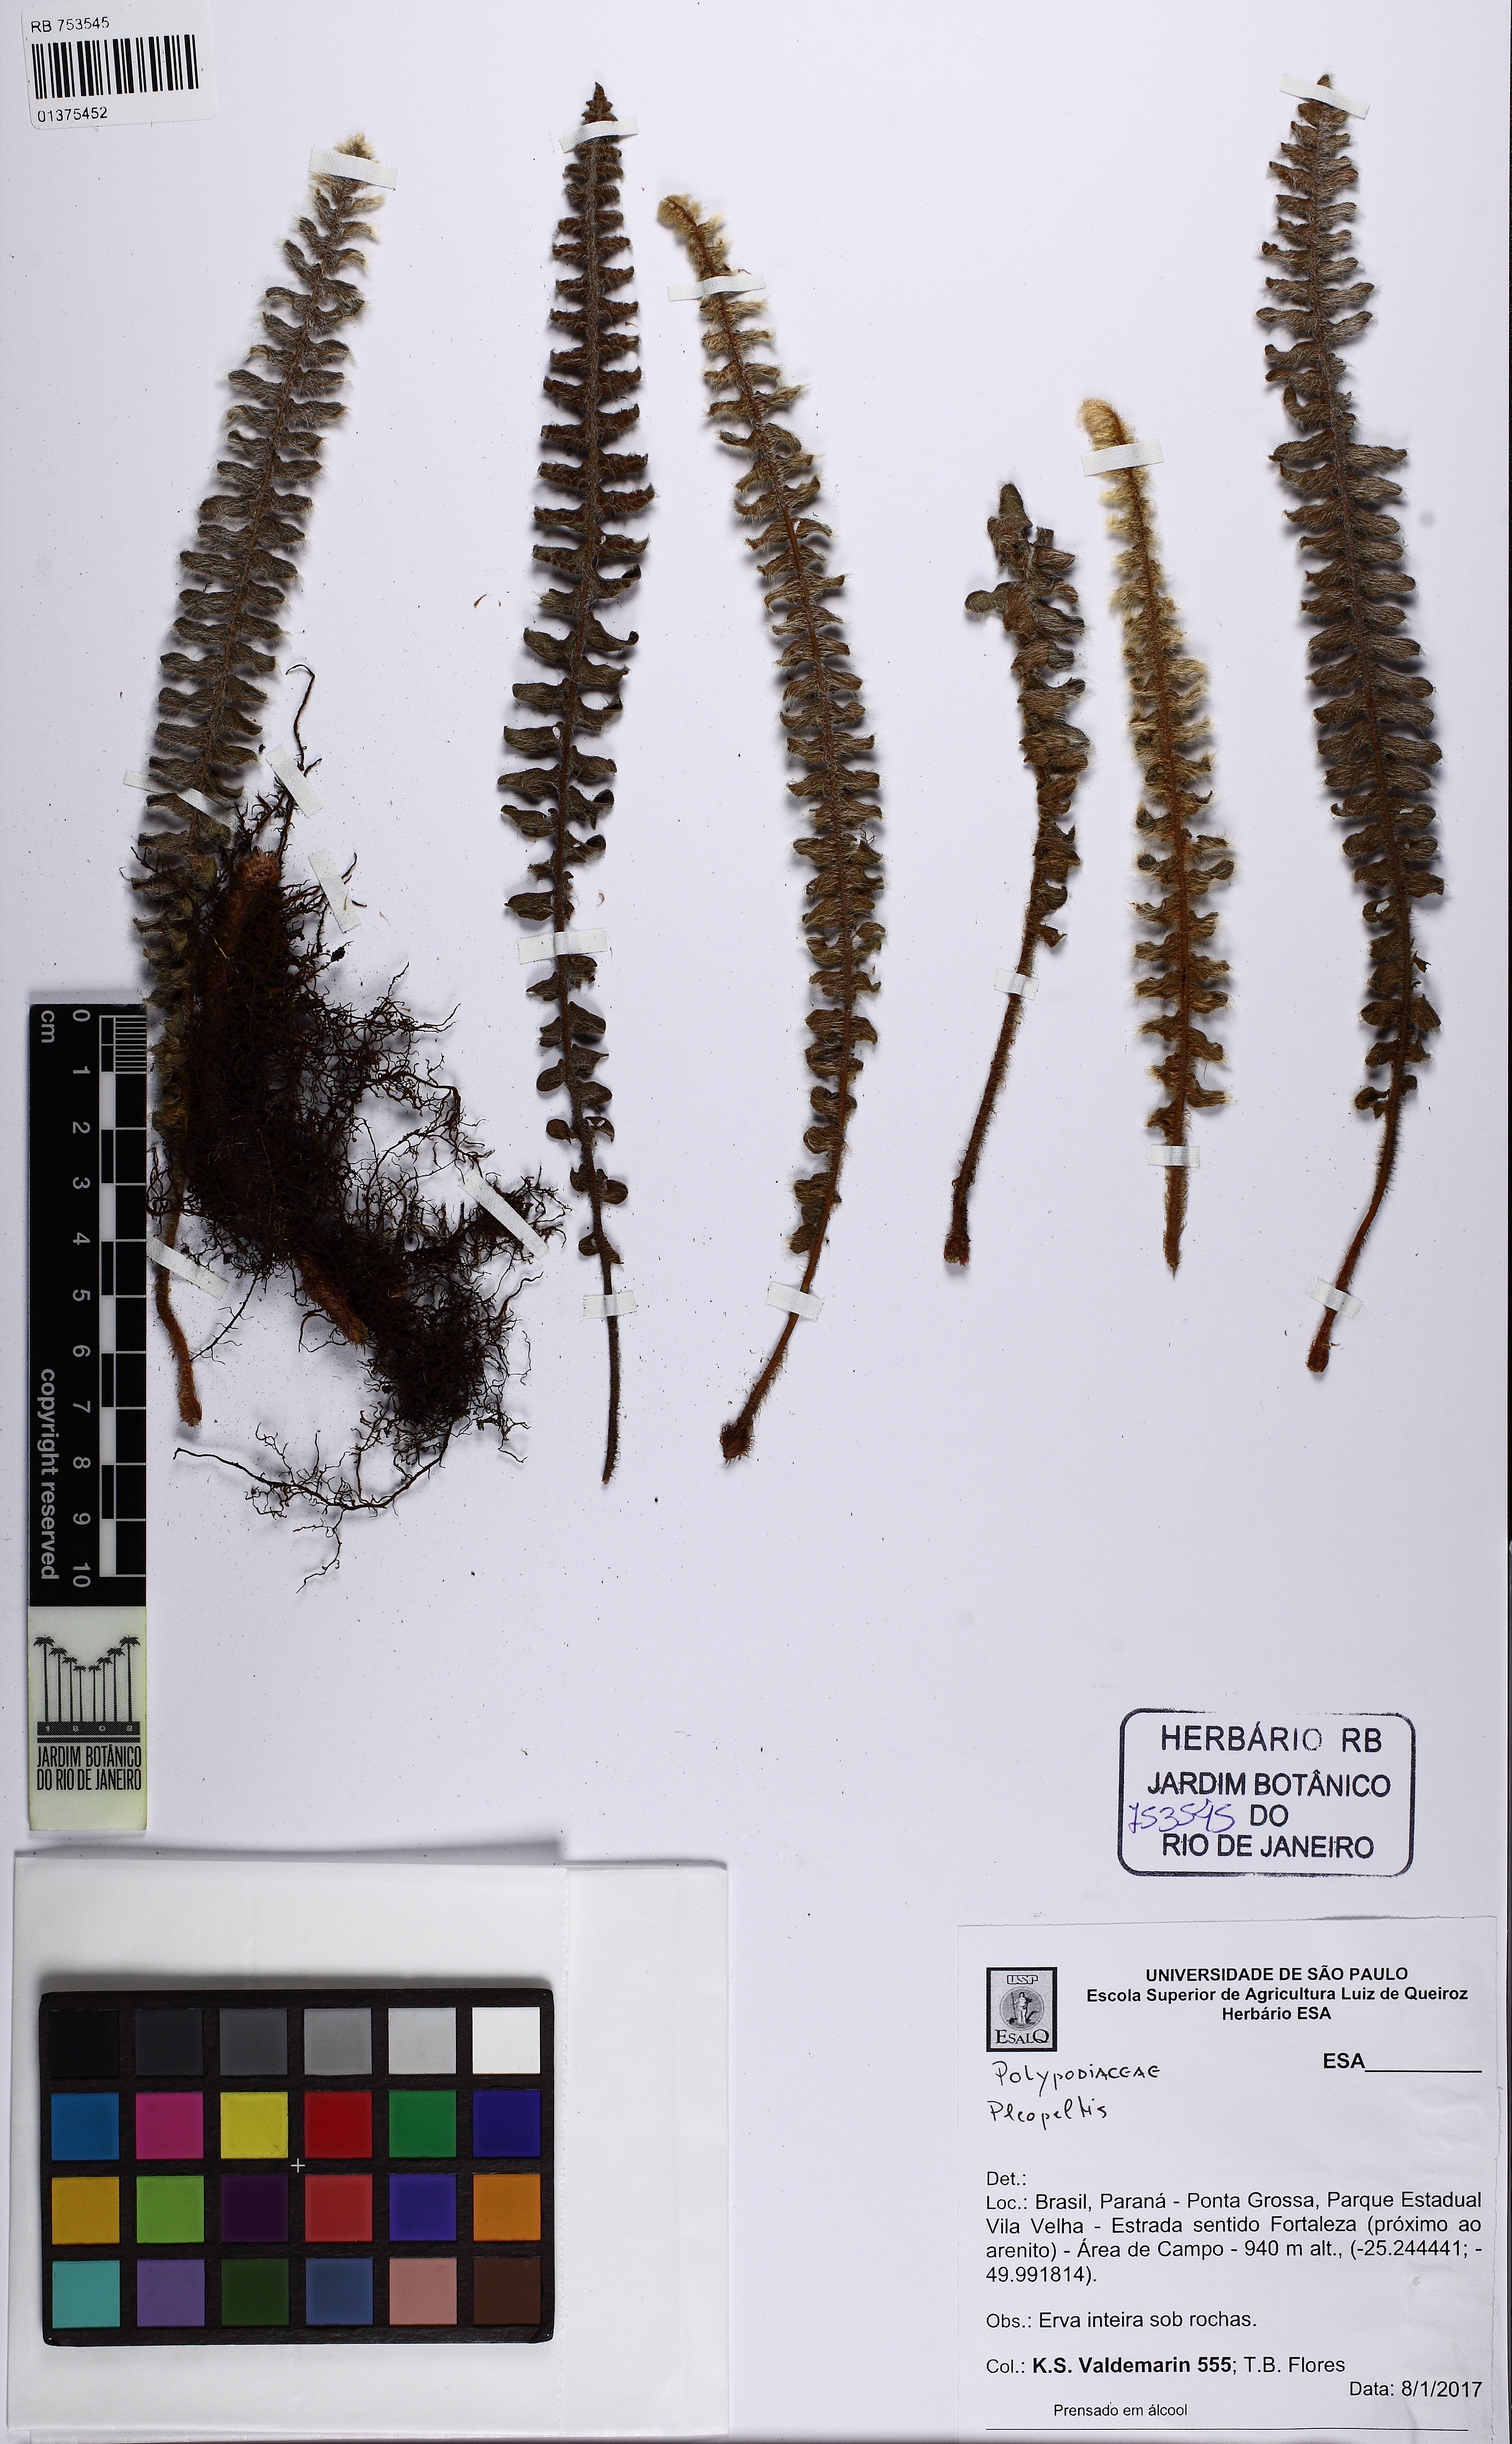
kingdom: Plantae
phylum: Tracheophyta
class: Polypodiopsida
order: Polypodiales
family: Polypodiaceae
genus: Pleopeltis
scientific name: Pleopeltis lepidopteris
